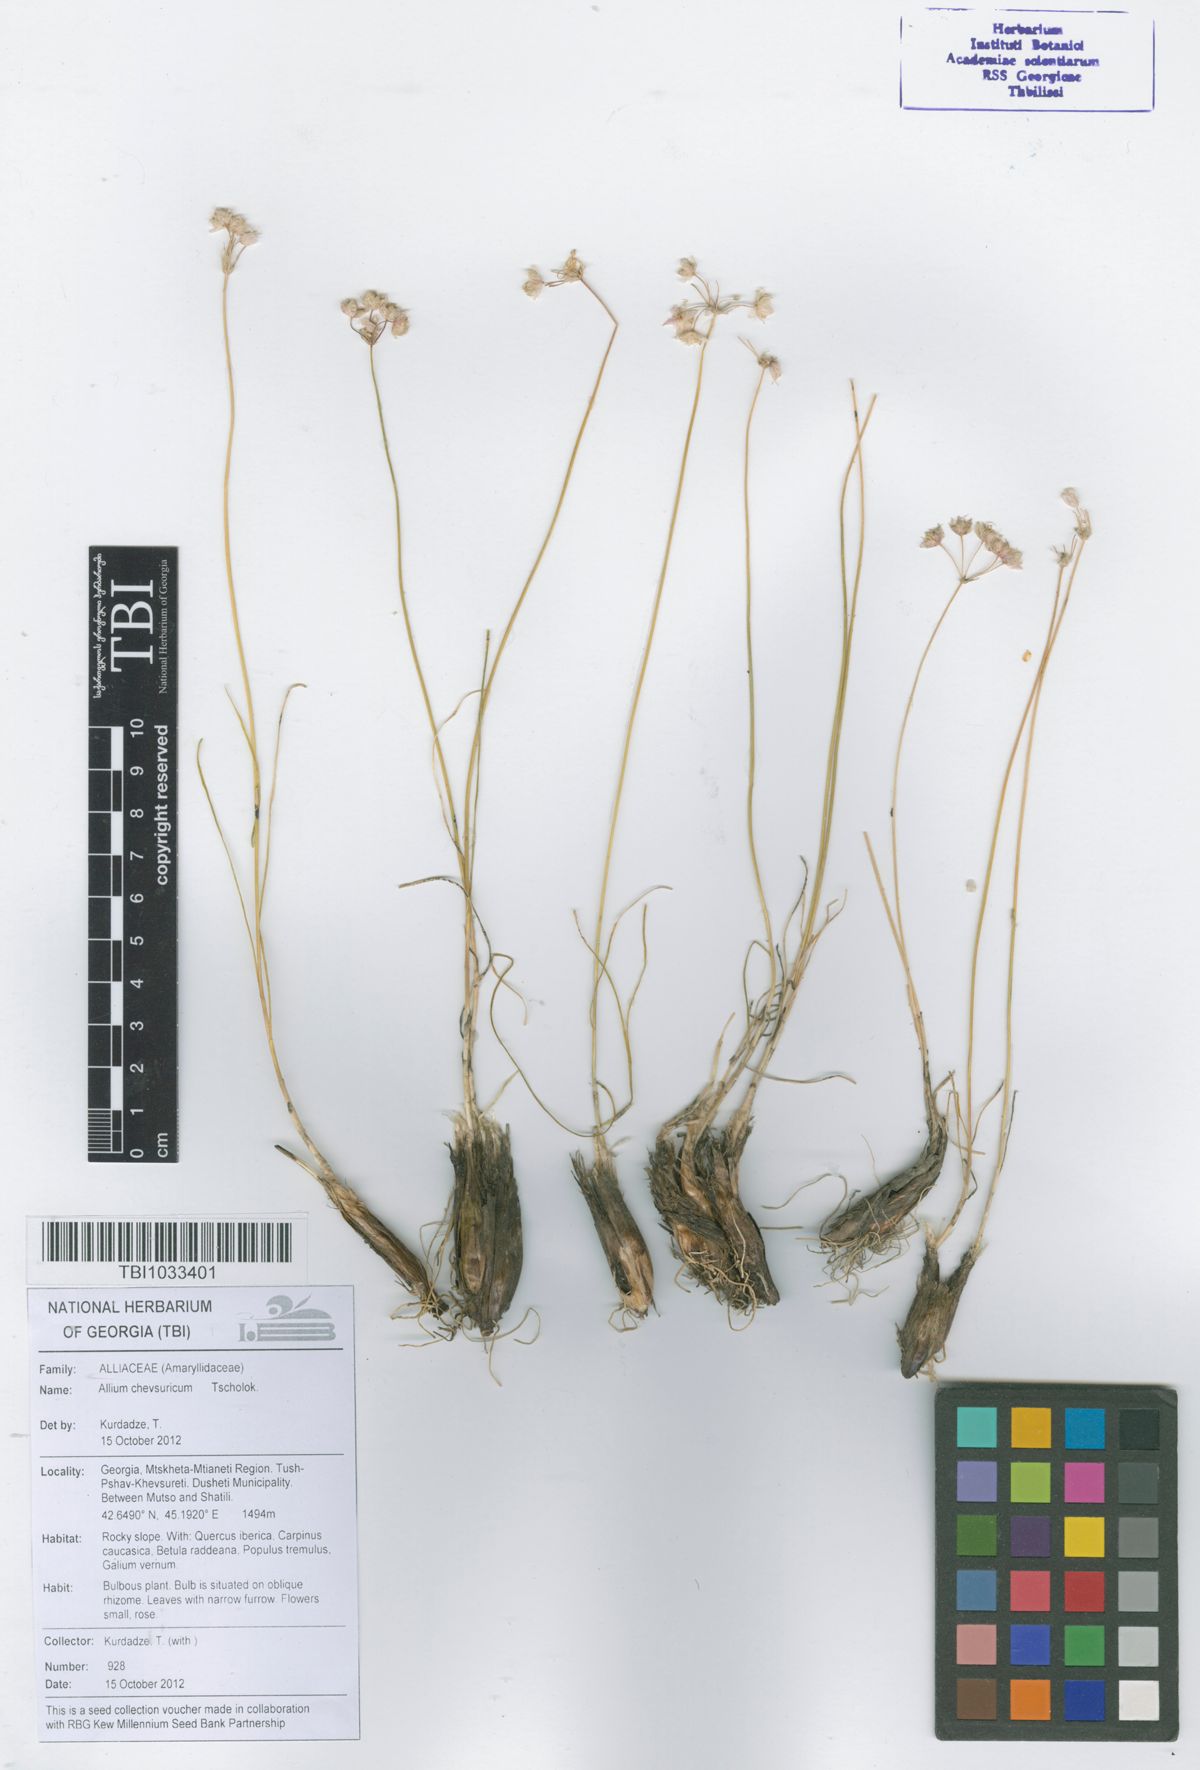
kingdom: Plantae
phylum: Tracheophyta
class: Liliopsida
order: Asparagales
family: Amaryllidaceae
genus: Allium
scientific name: Allium gunibicum
